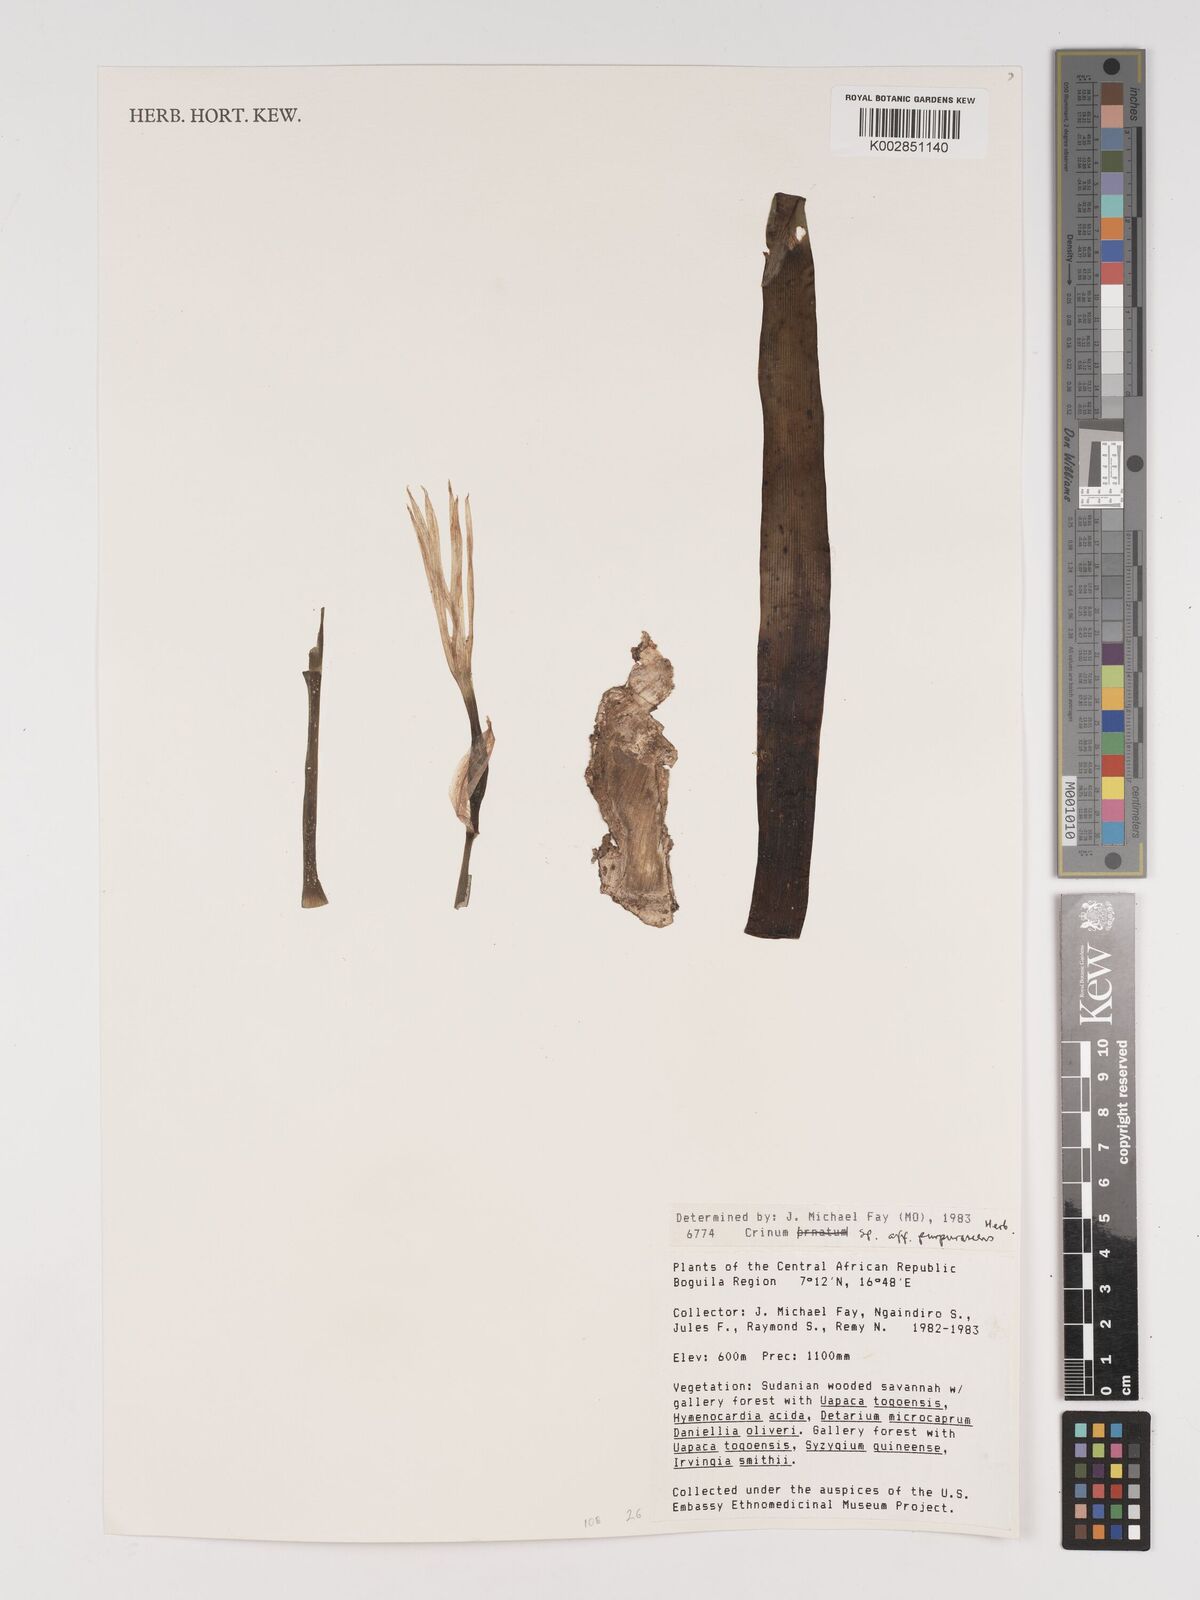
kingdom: Plantae
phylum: Tracheophyta
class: Liliopsida
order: Asparagales
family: Amaryllidaceae
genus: Crinum
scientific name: Crinum purpurascens
